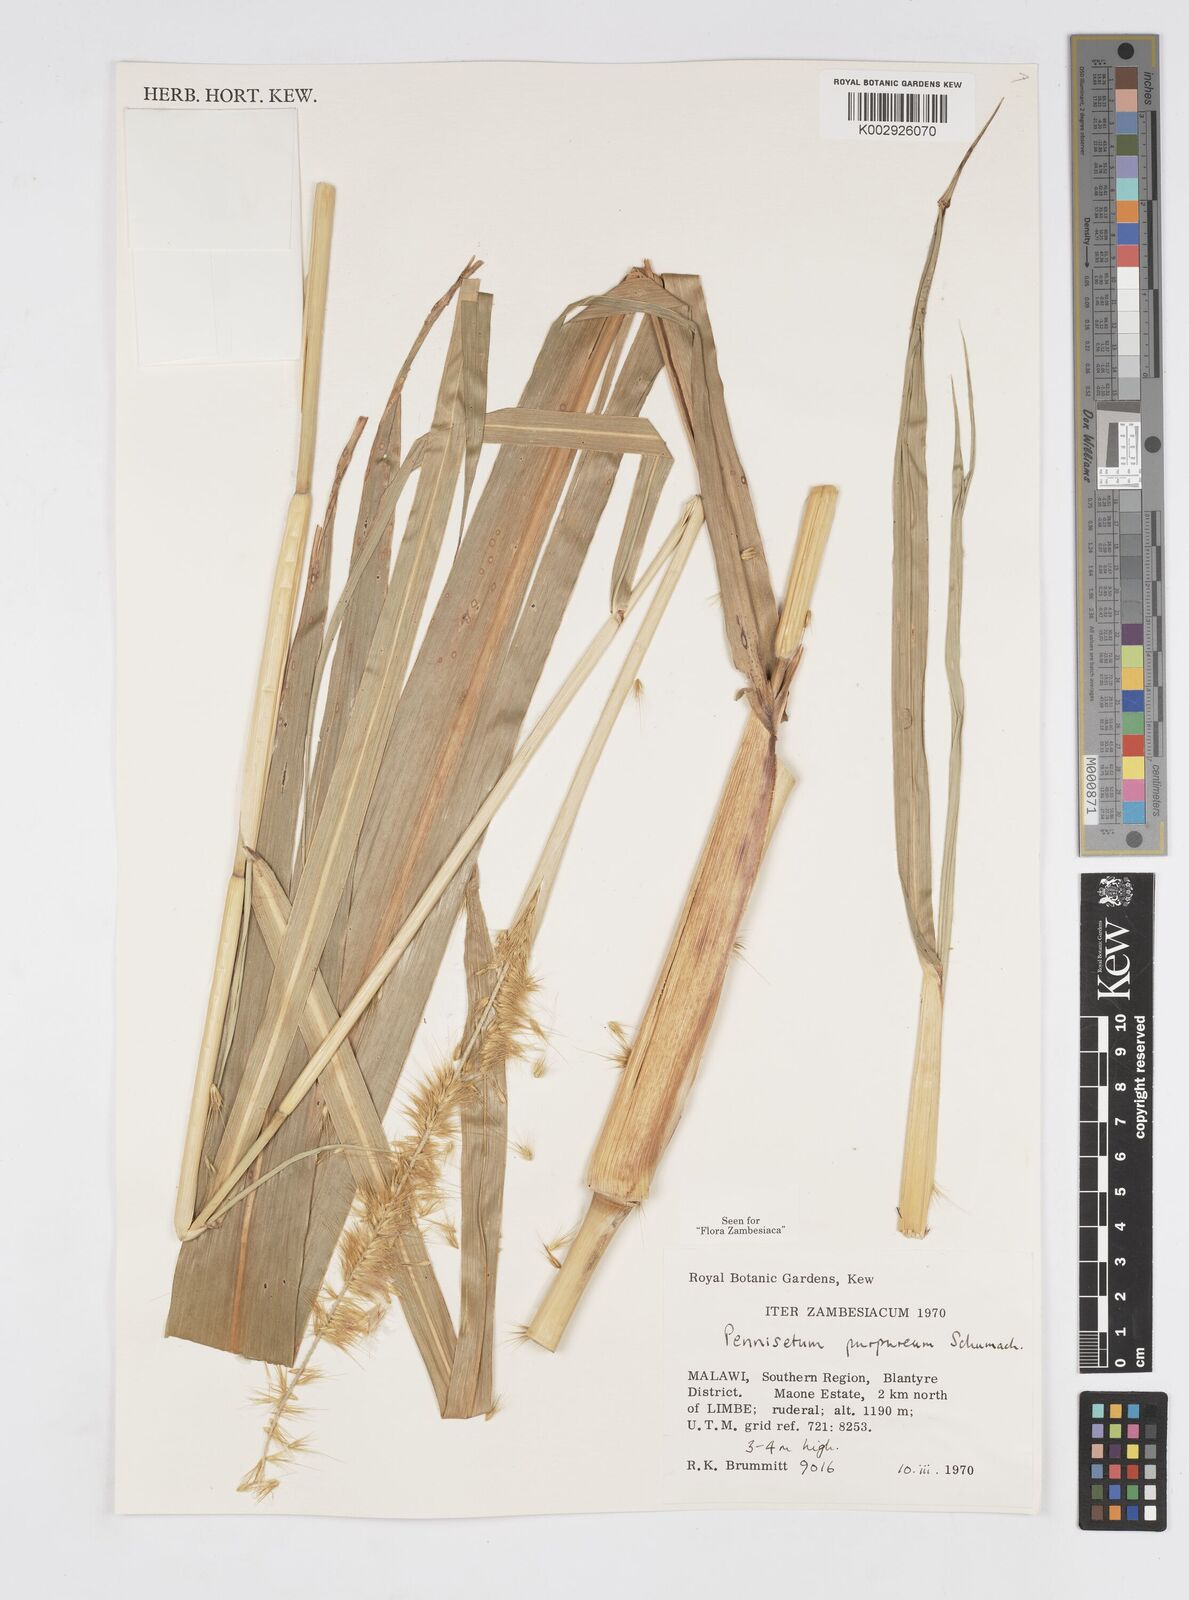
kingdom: Plantae
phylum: Tracheophyta
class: Liliopsida
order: Poales
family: Poaceae
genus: Cenchrus
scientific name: Cenchrus purpureus
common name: Elephant grass
